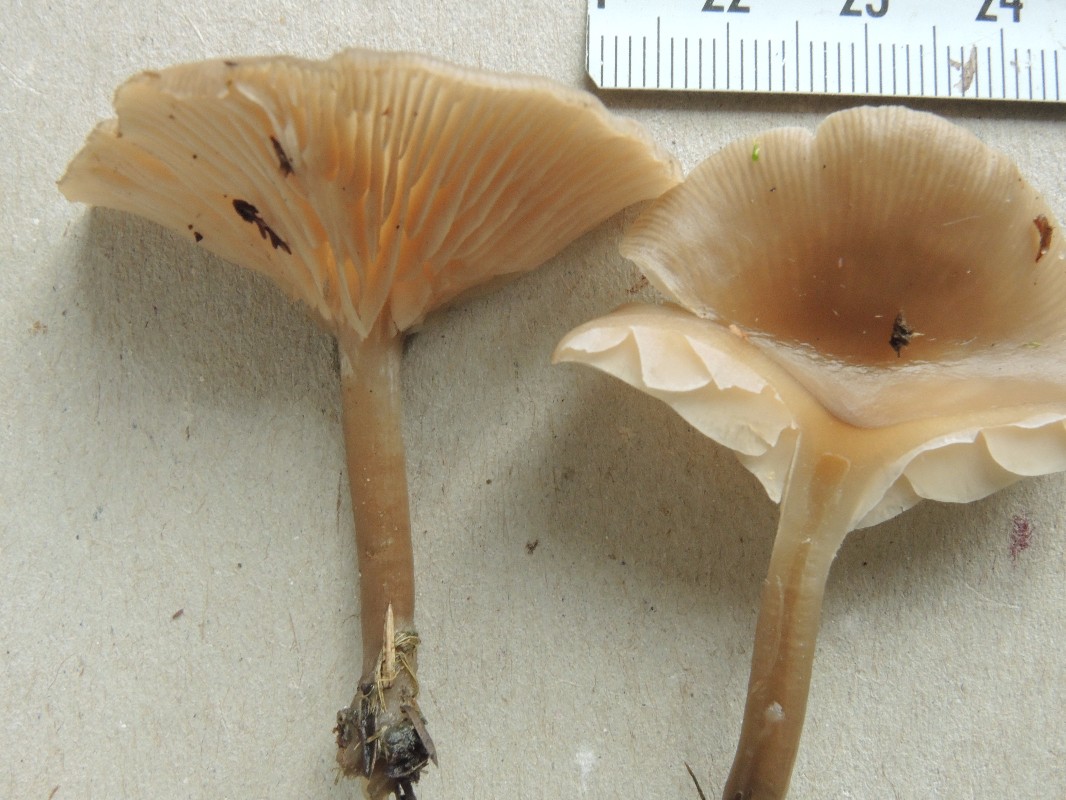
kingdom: Fungi
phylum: Basidiomycota
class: Agaricomycetes
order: Agaricales
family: Tricholomataceae
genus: Clitocybe
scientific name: Clitocybe metachroa
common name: grå tragthat
